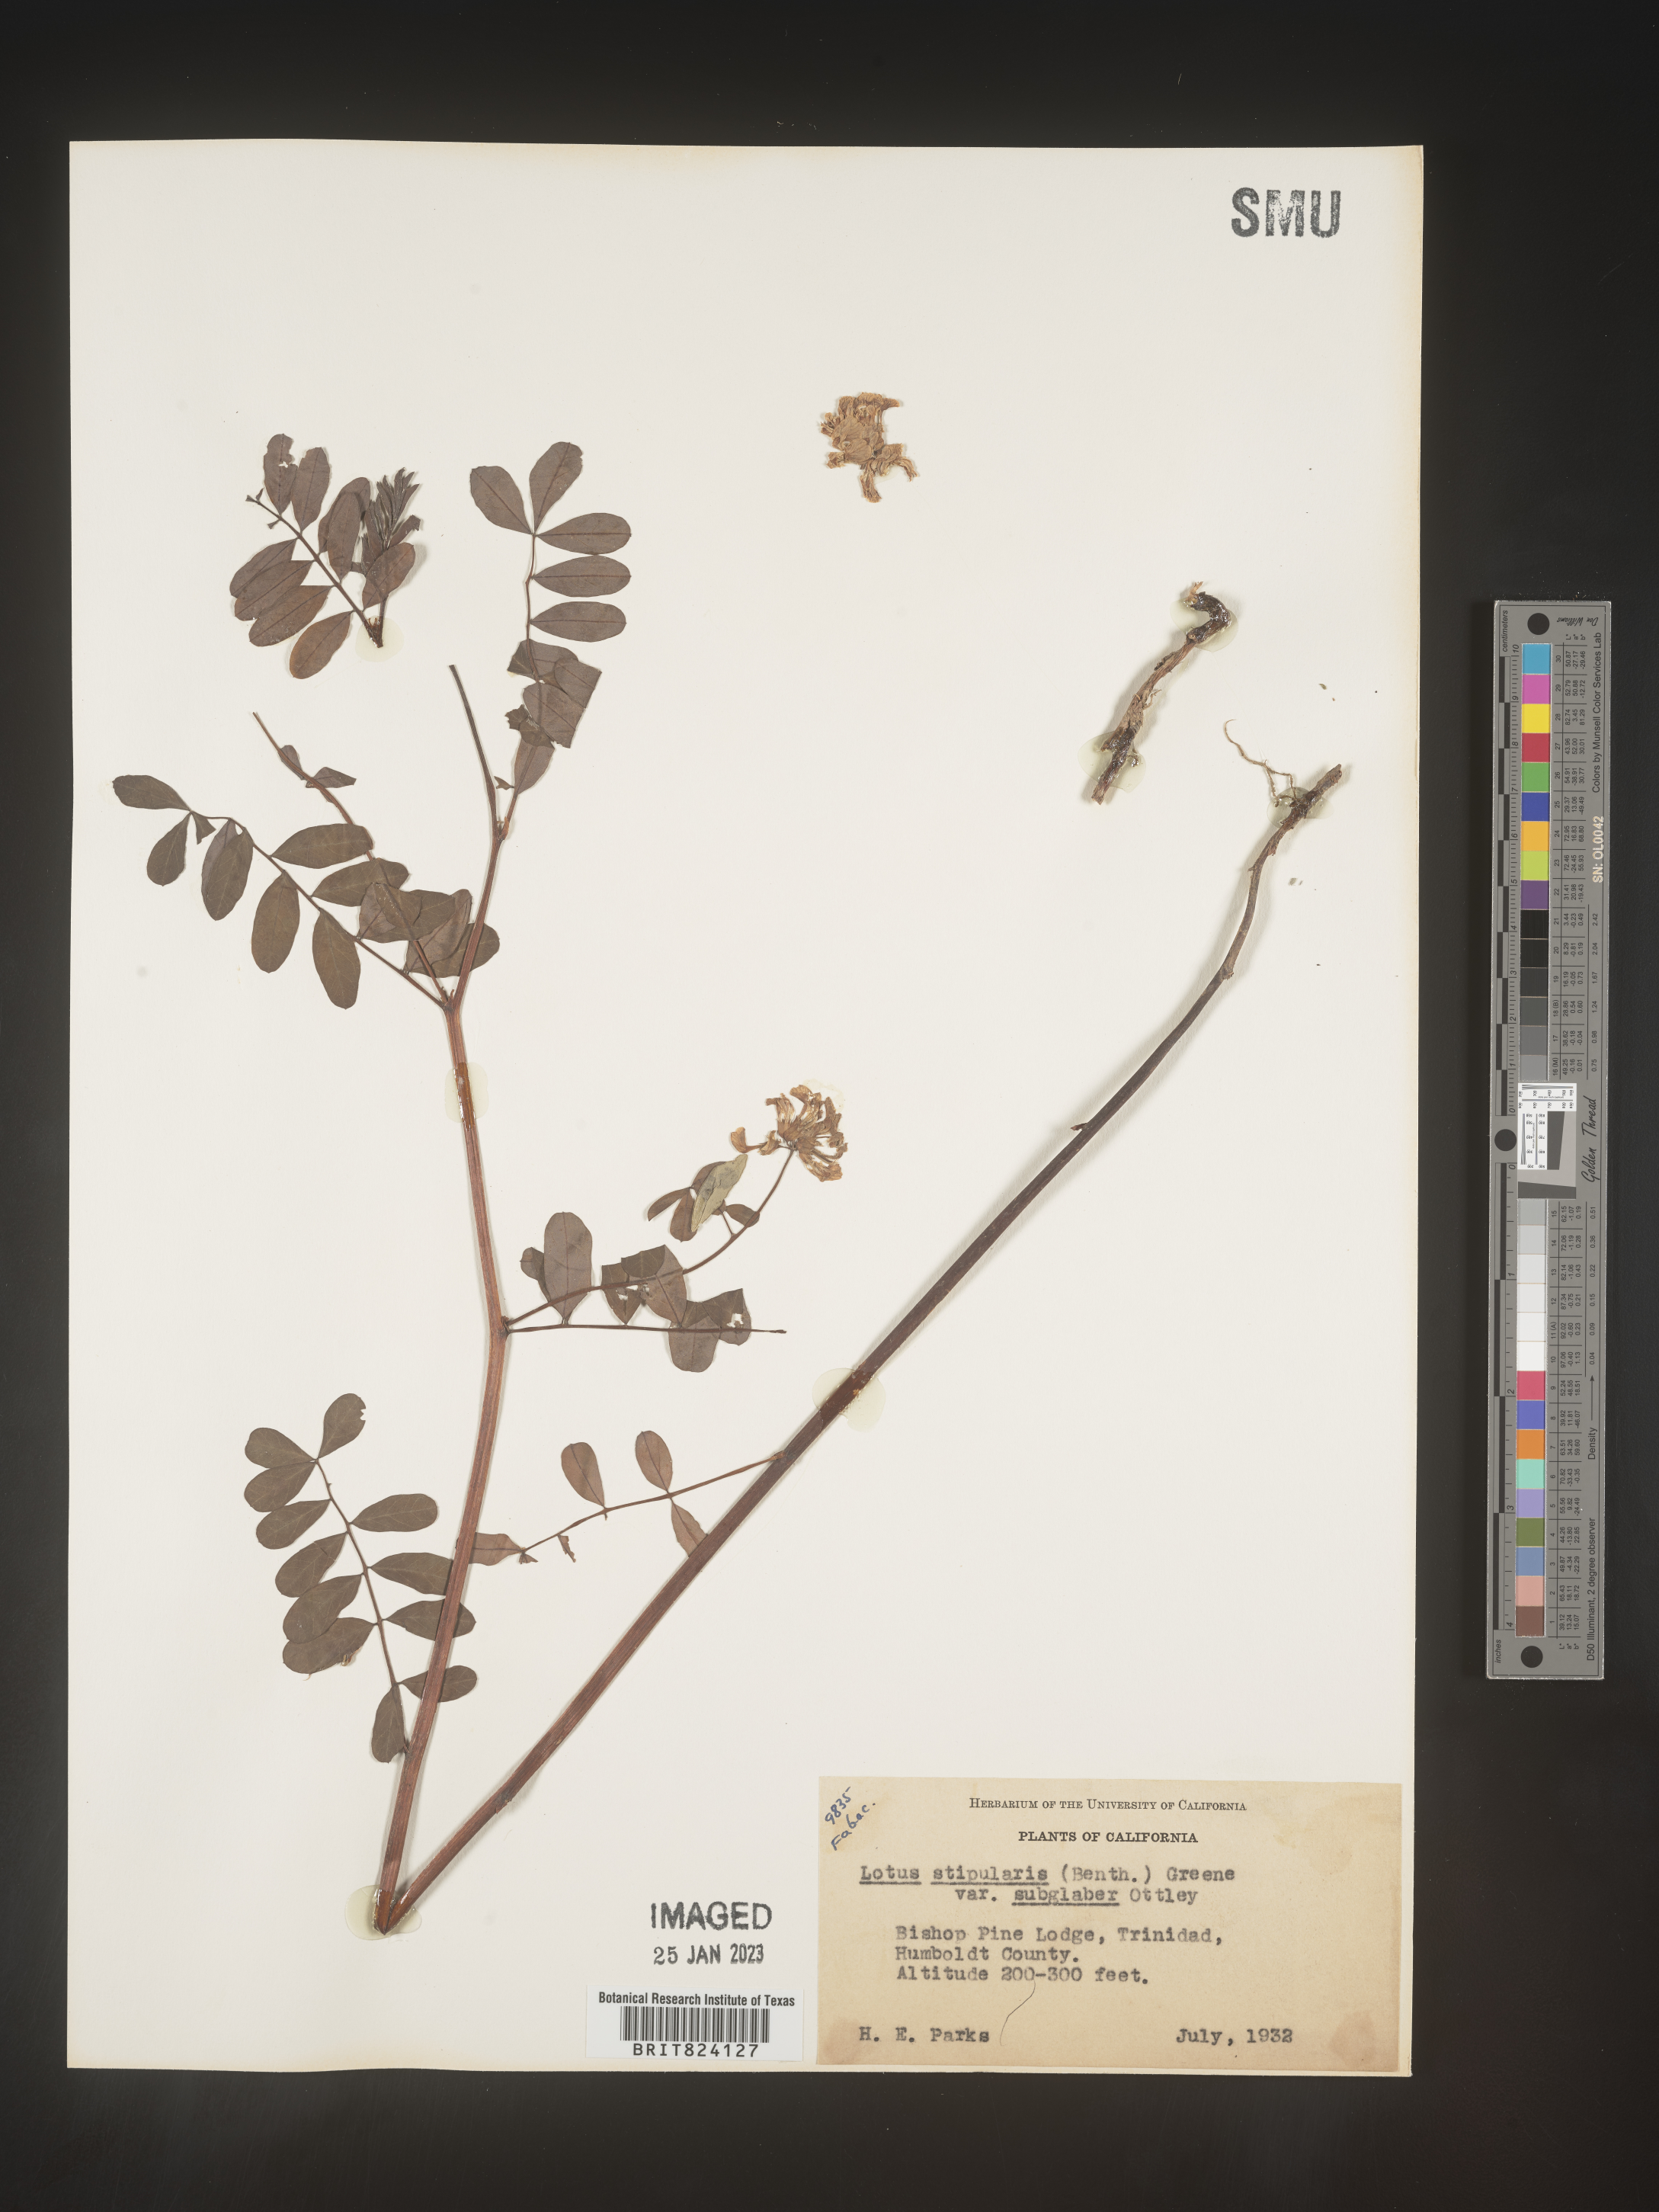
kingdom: Plantae
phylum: Tracheophyta
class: Magnoliopsida
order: Fabales
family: Fabaceae
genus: Lotus
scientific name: Lotus
